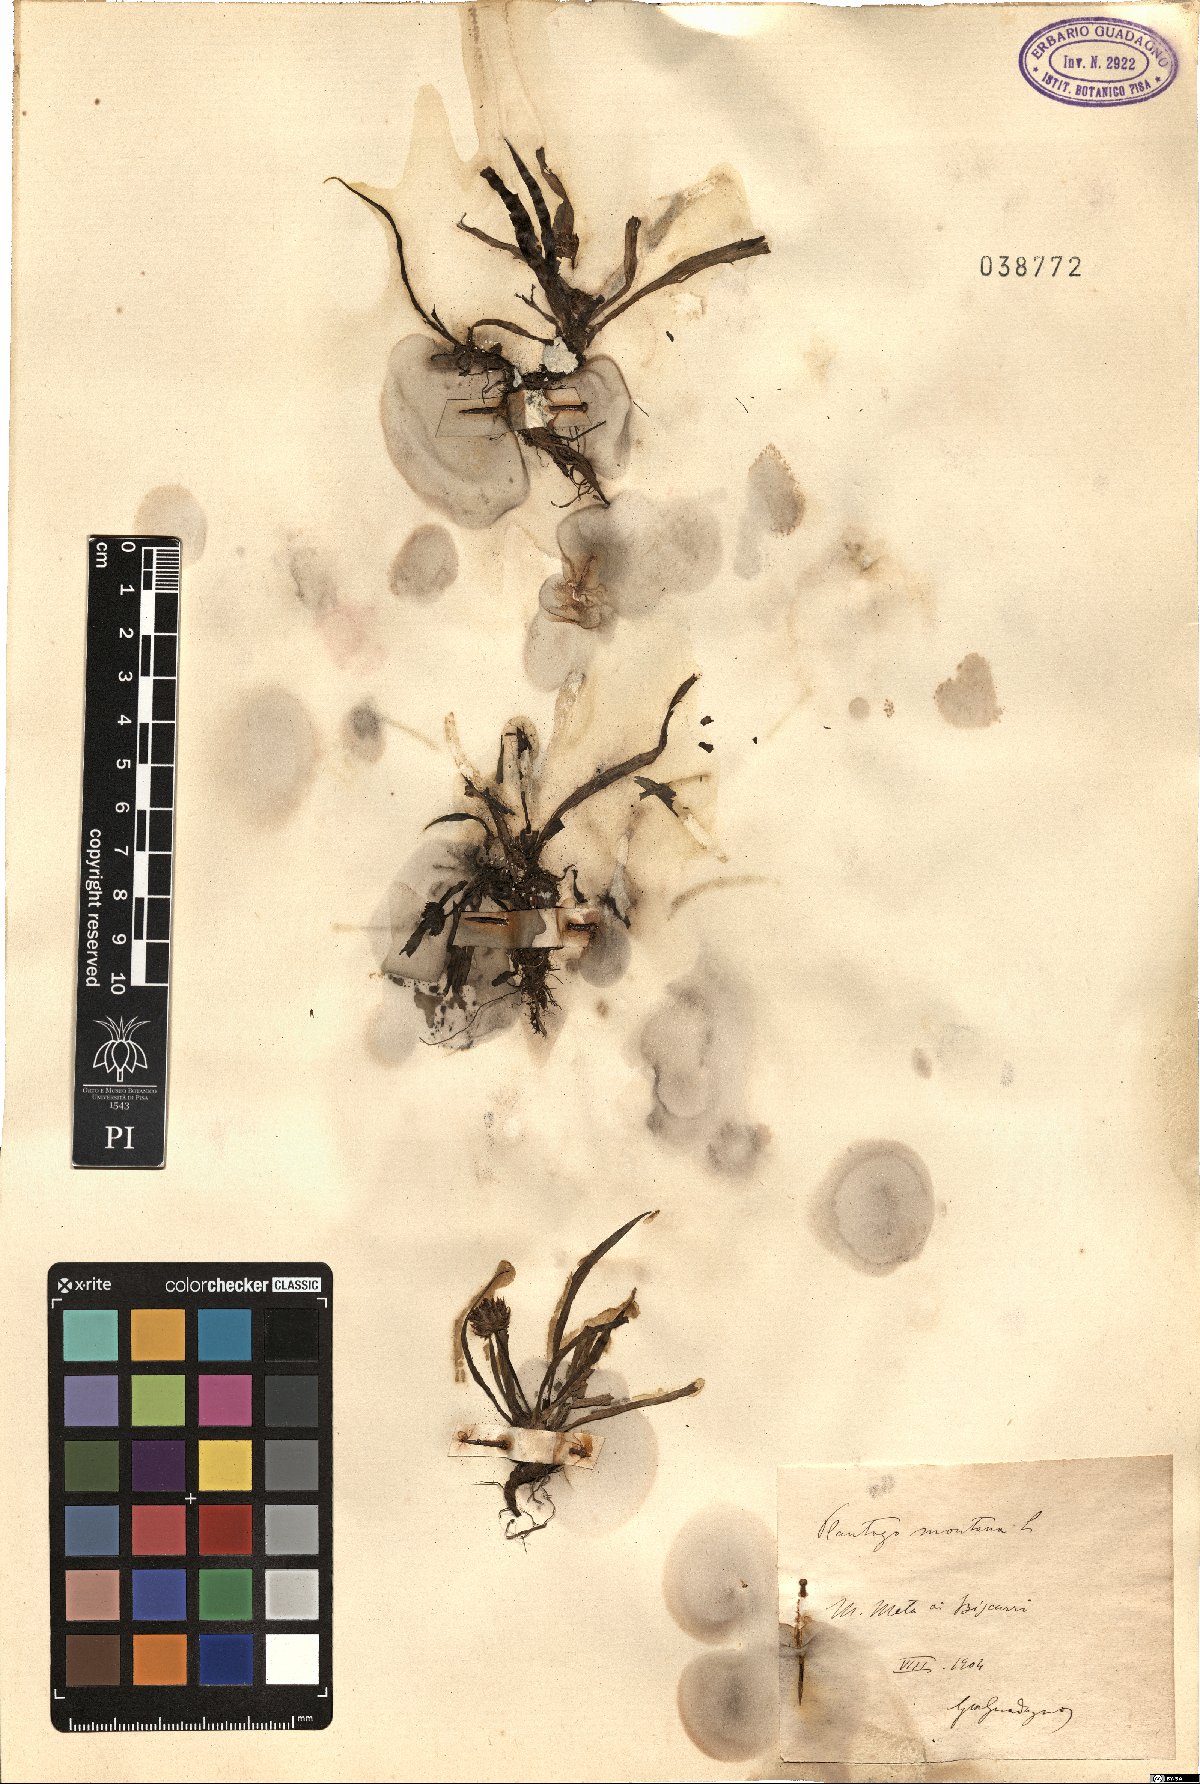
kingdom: Plantae
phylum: Tracheophyta
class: Magnoliopsida
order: Lamiales
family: Plantaginaceae
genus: Plantago
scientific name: Plantago atrata
